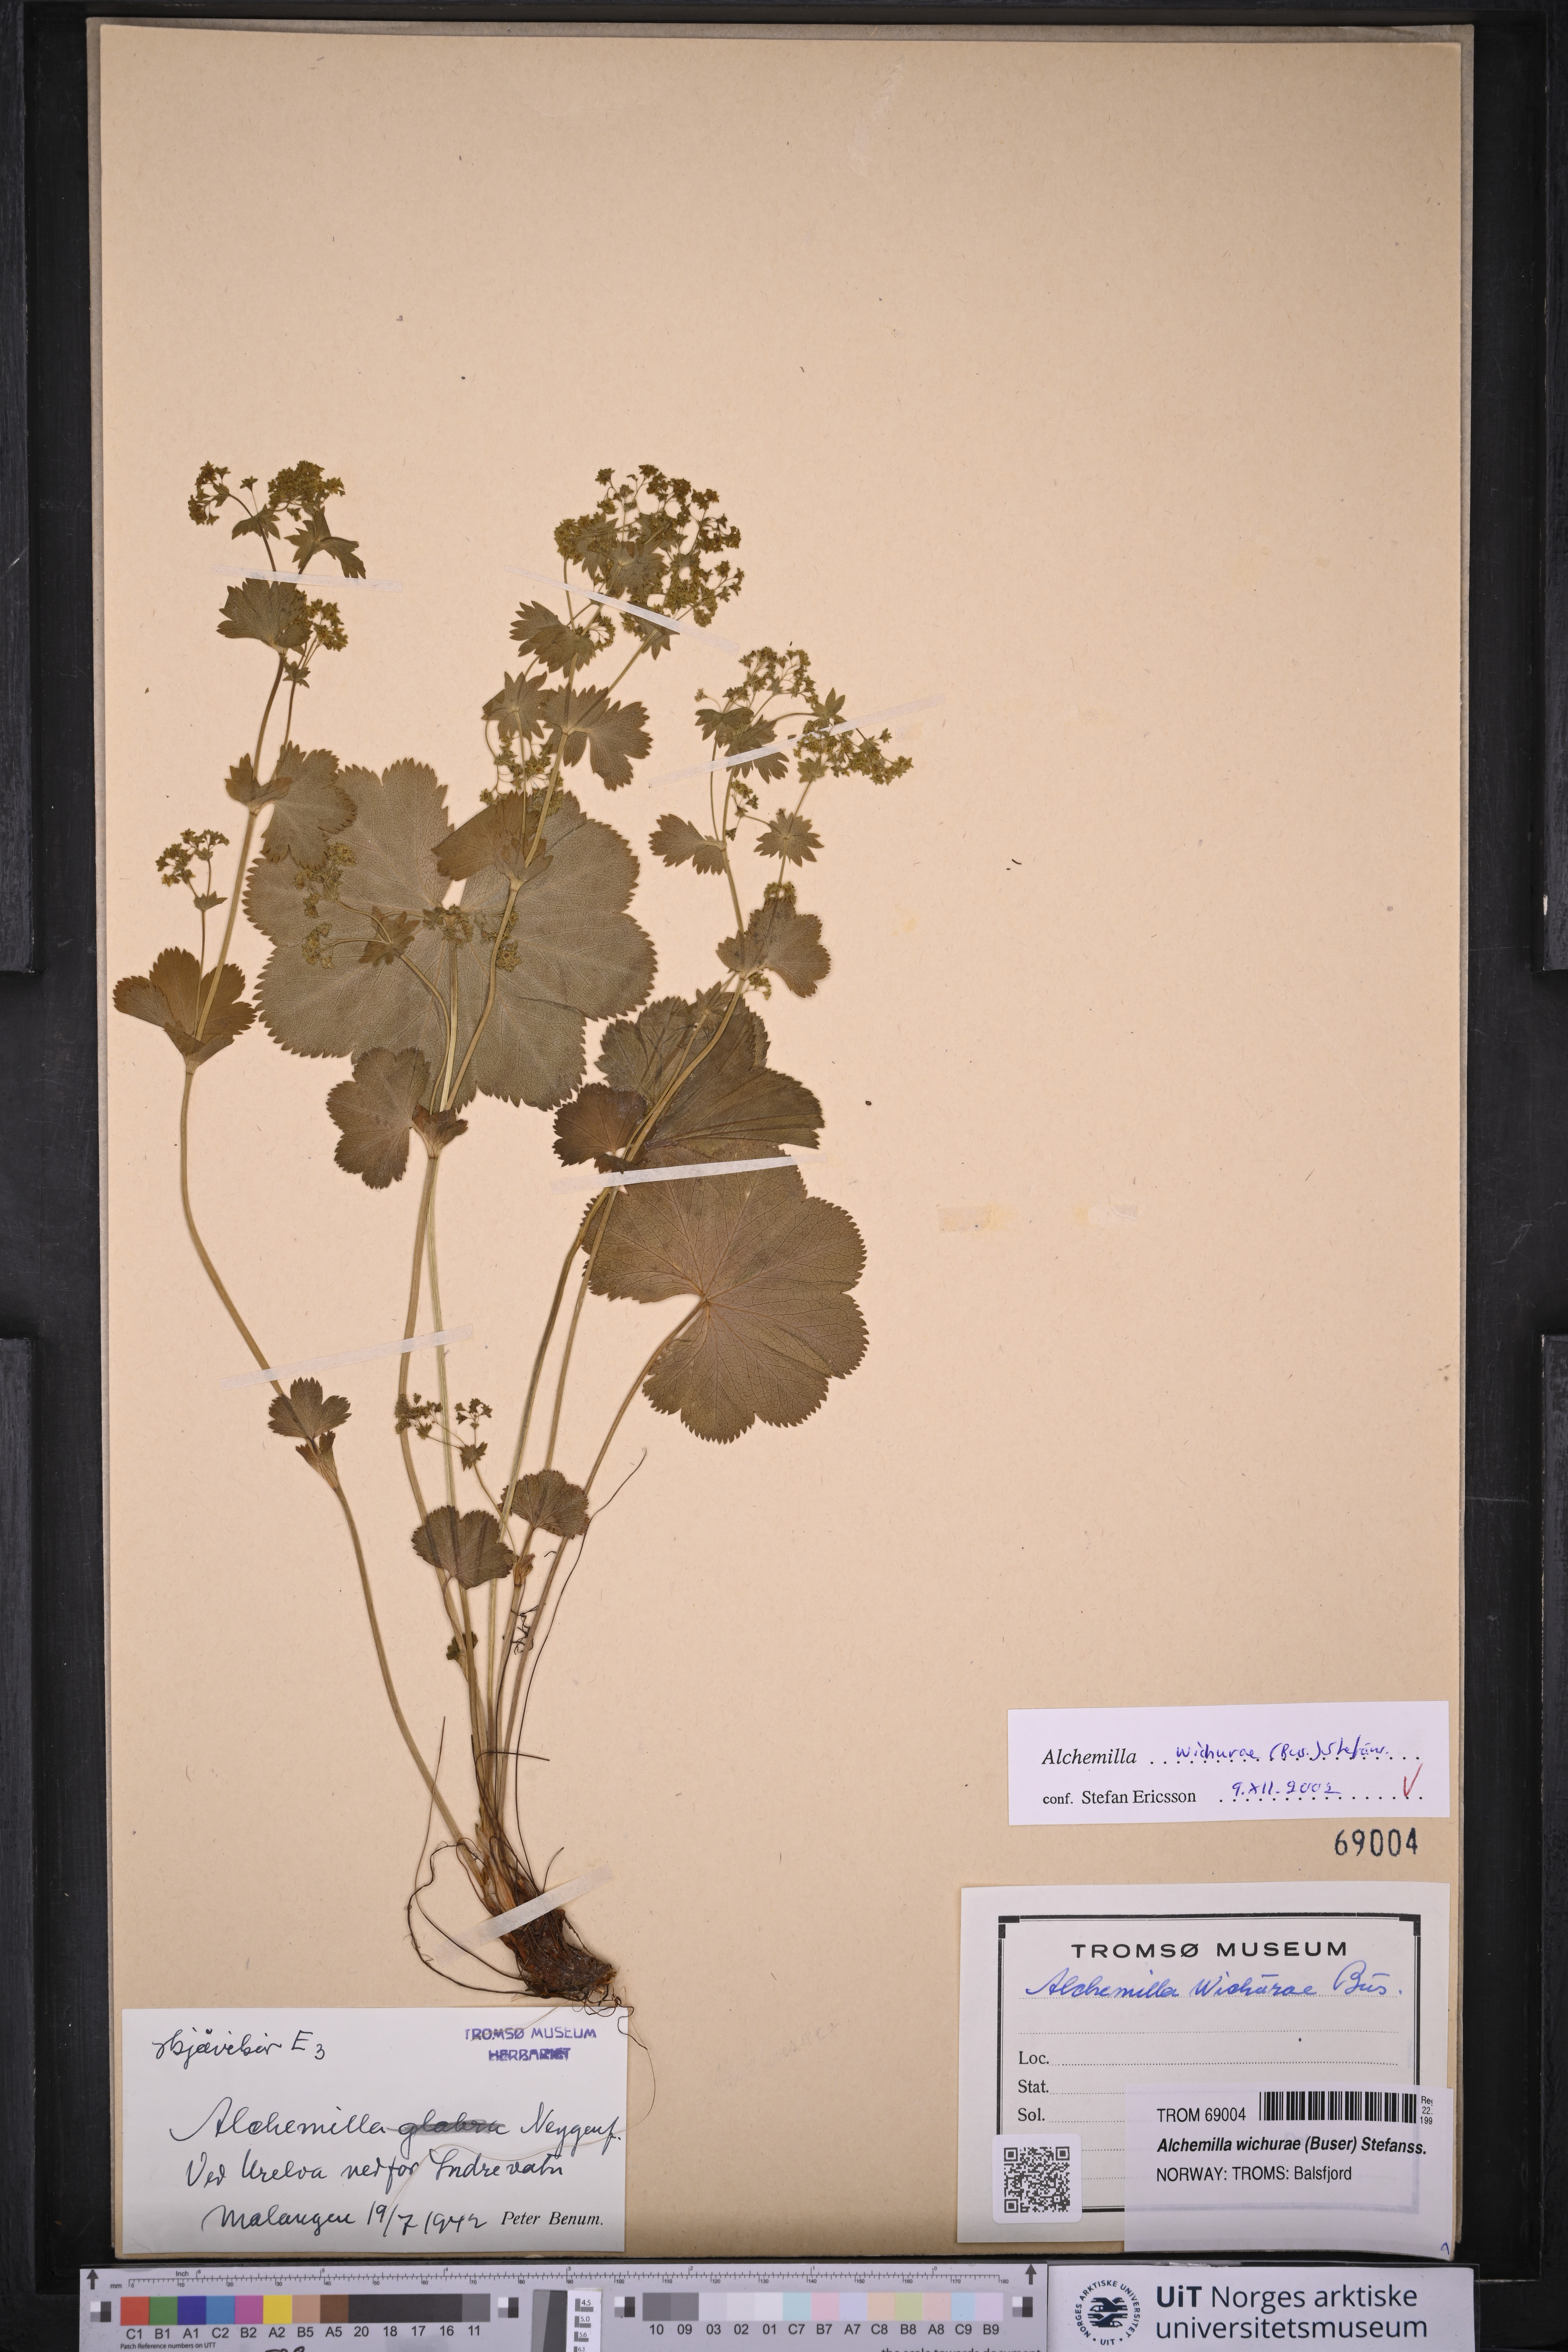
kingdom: Plantae
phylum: Tracheophyta
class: Magnoliopsida
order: Rosales
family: Rosaceae
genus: Alchemilla
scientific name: Alchemilla wichurae
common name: Rock lady's mantle
